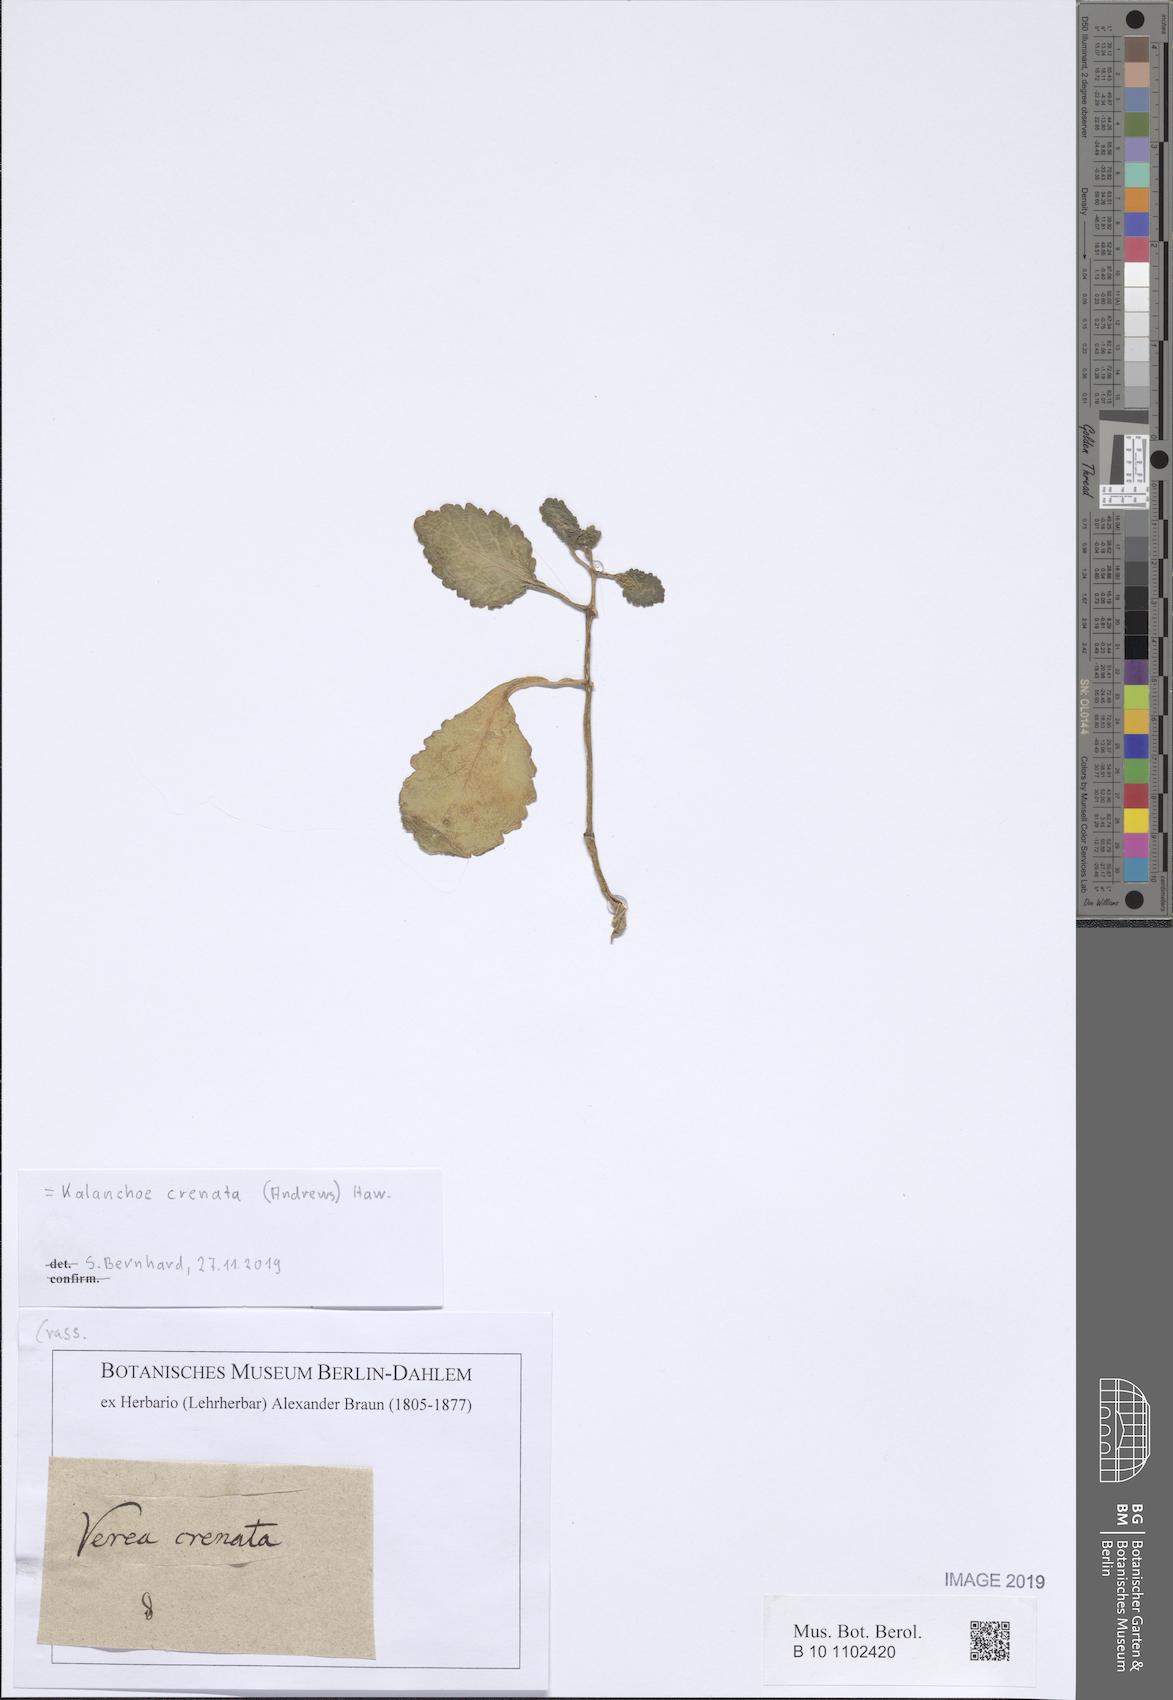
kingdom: Plantae
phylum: Tracheophyta
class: Magnoliopsida
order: Saxifragales
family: Crassulaceae
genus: Kalanchoe
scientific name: Kalanchoe crenata
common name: Neverdie
